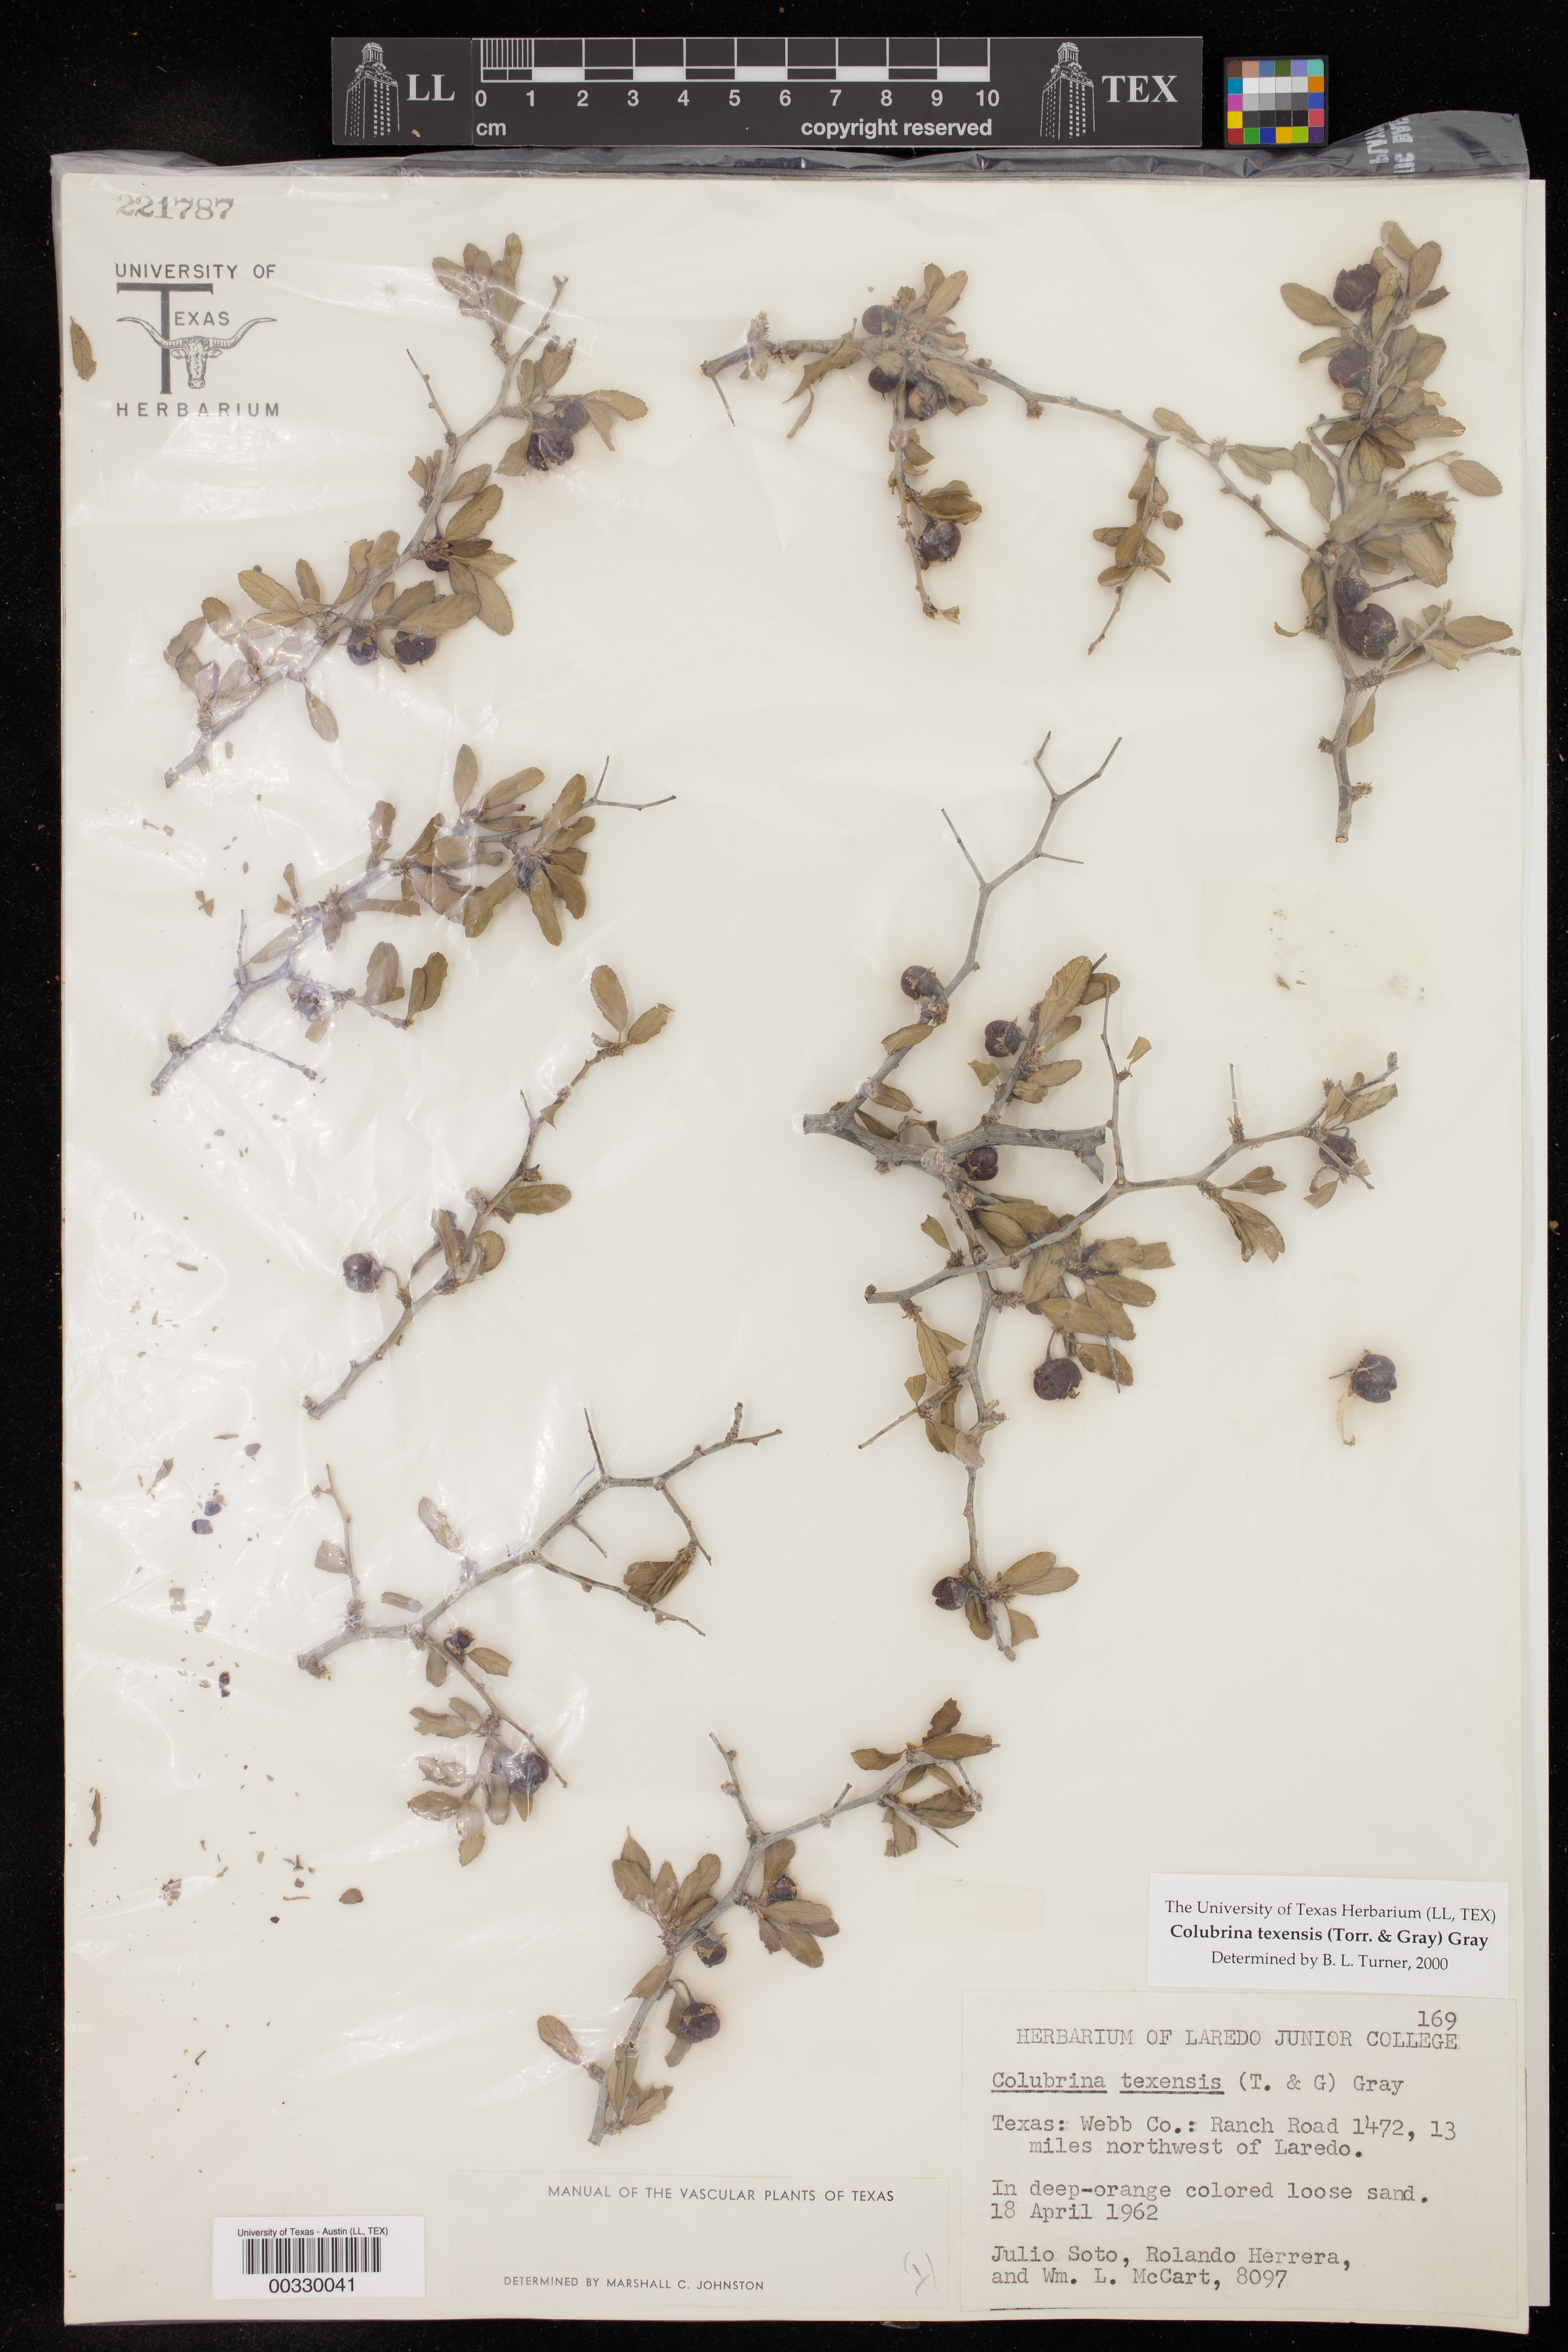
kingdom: Plantae
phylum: Tracheophyta
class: Magnoliopsida
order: Rosales
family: Rhamnaceae
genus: Colubrina
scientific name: Colubrina texensis
